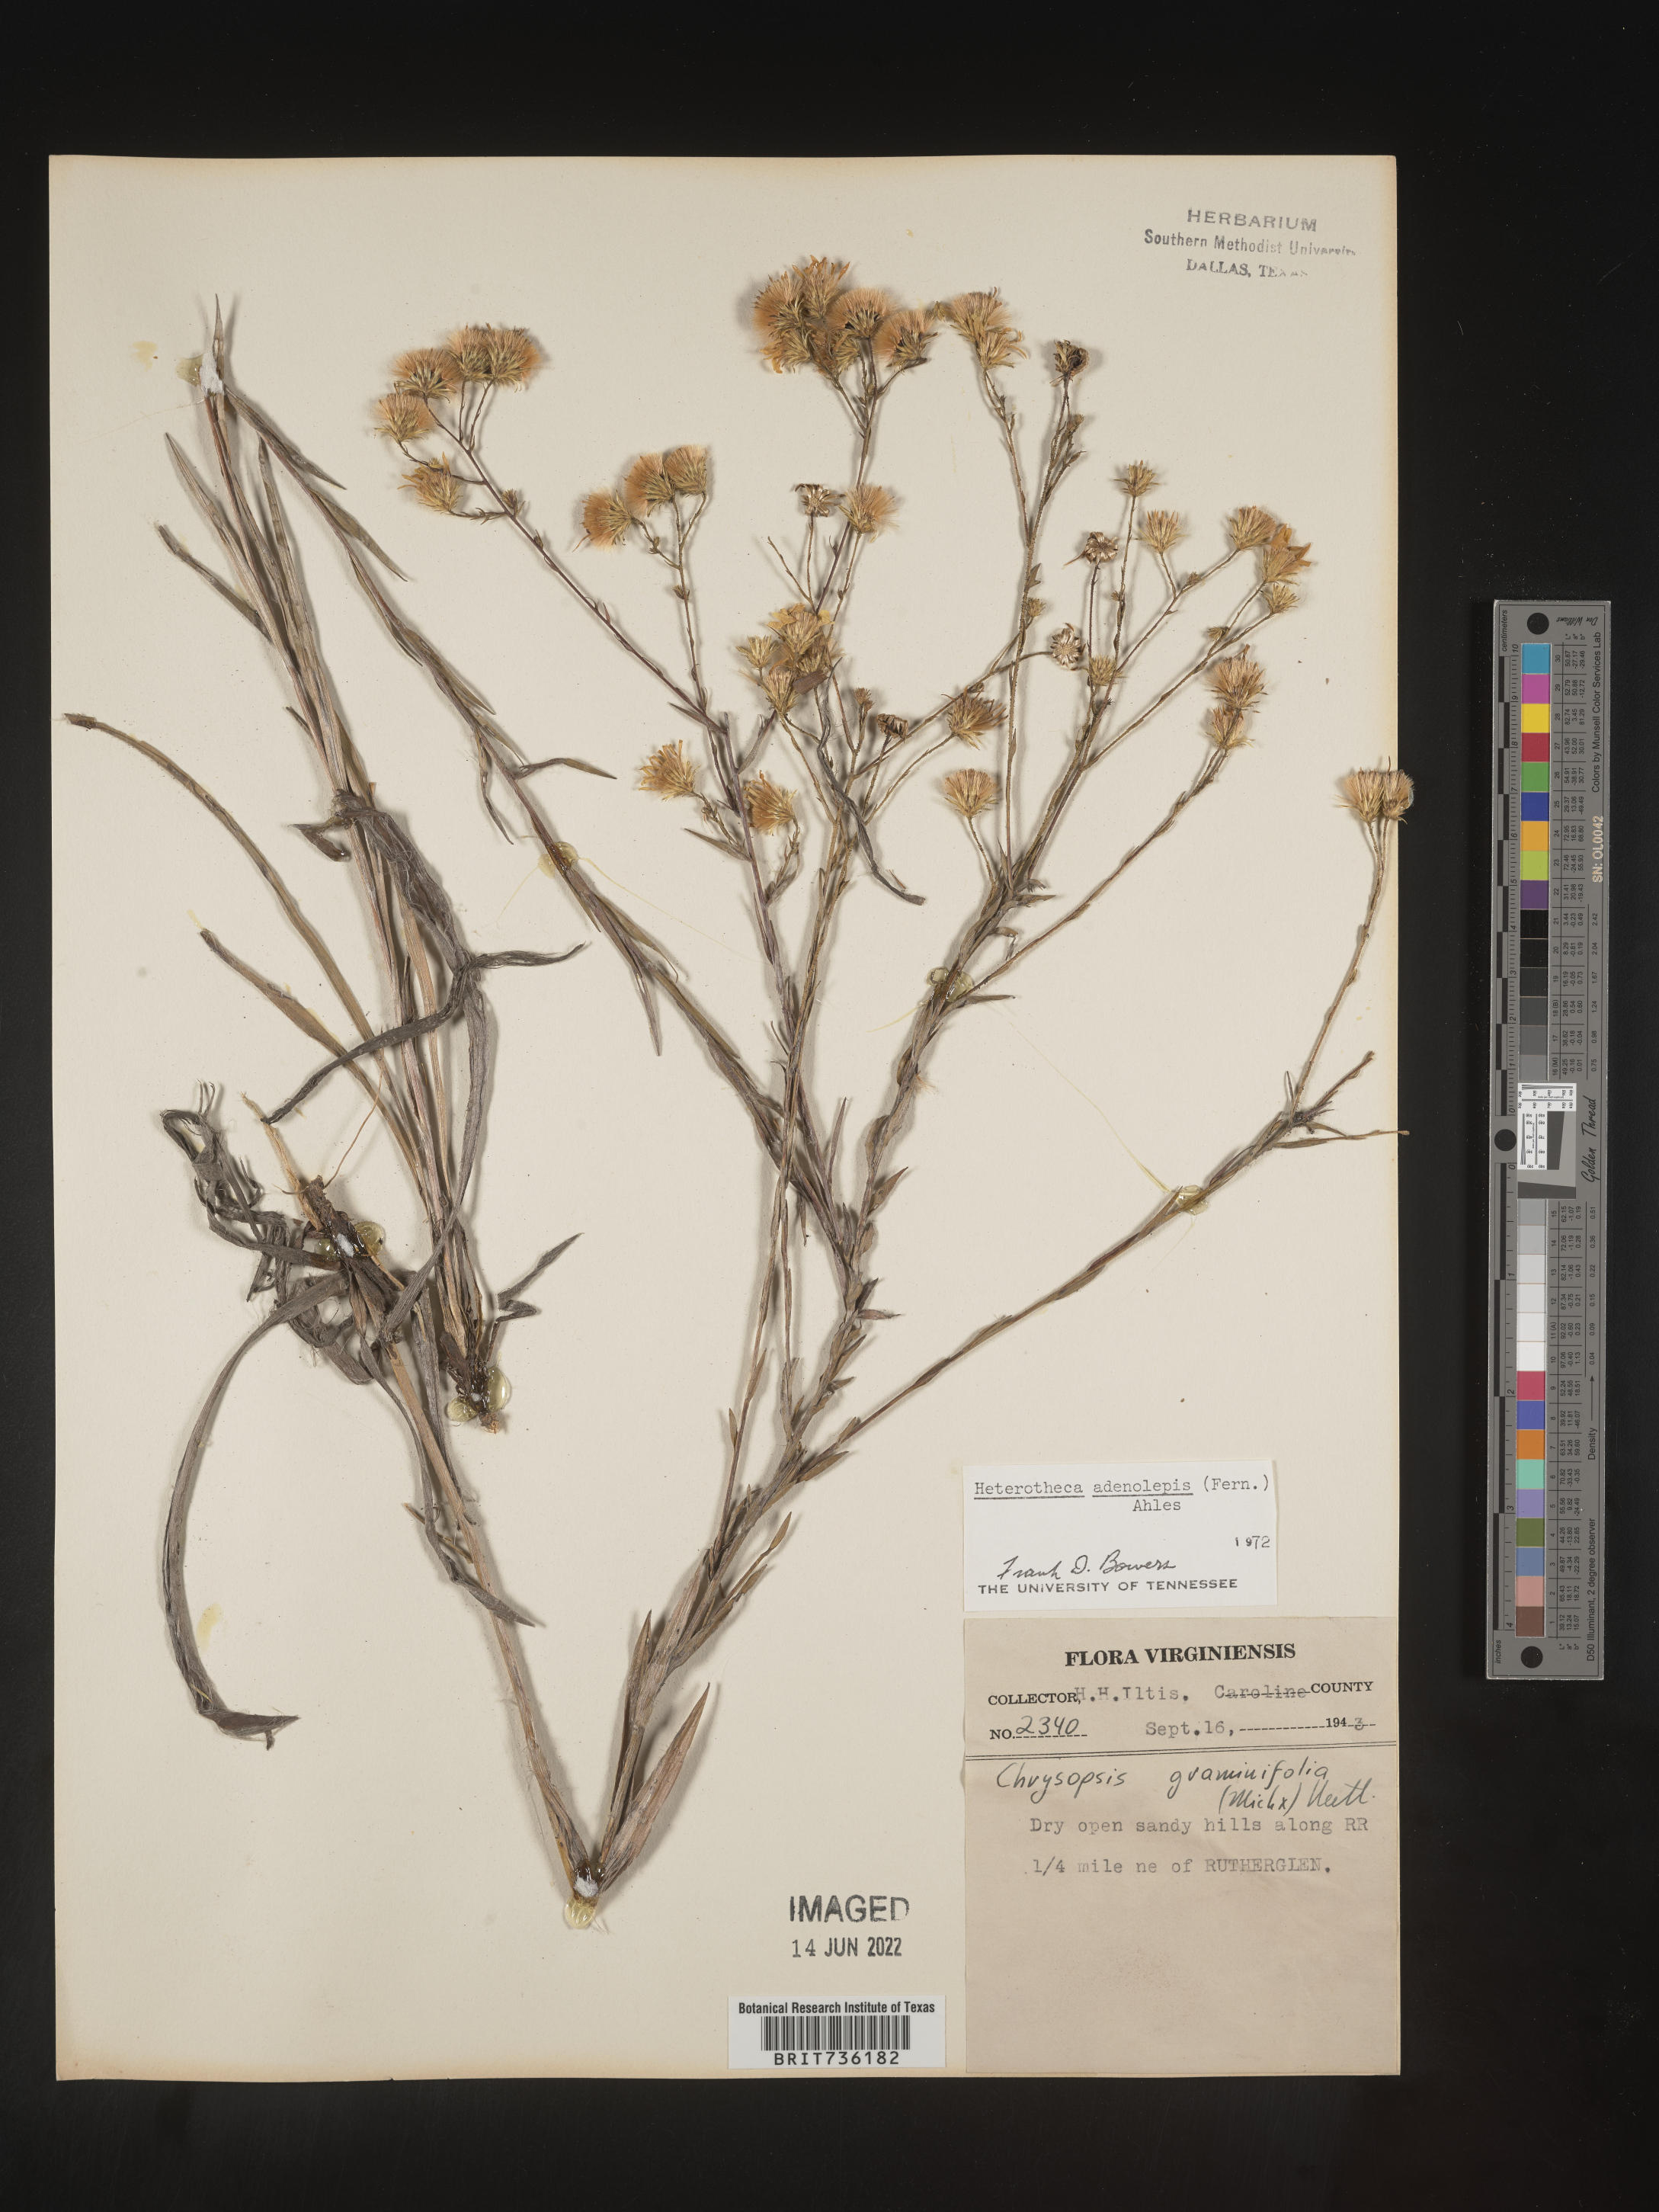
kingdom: Plantae
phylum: Tracheophyta
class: Magnoliopsida
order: Asterales
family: Asteraceae
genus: Pityopsis
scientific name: Pityopsis aspera
